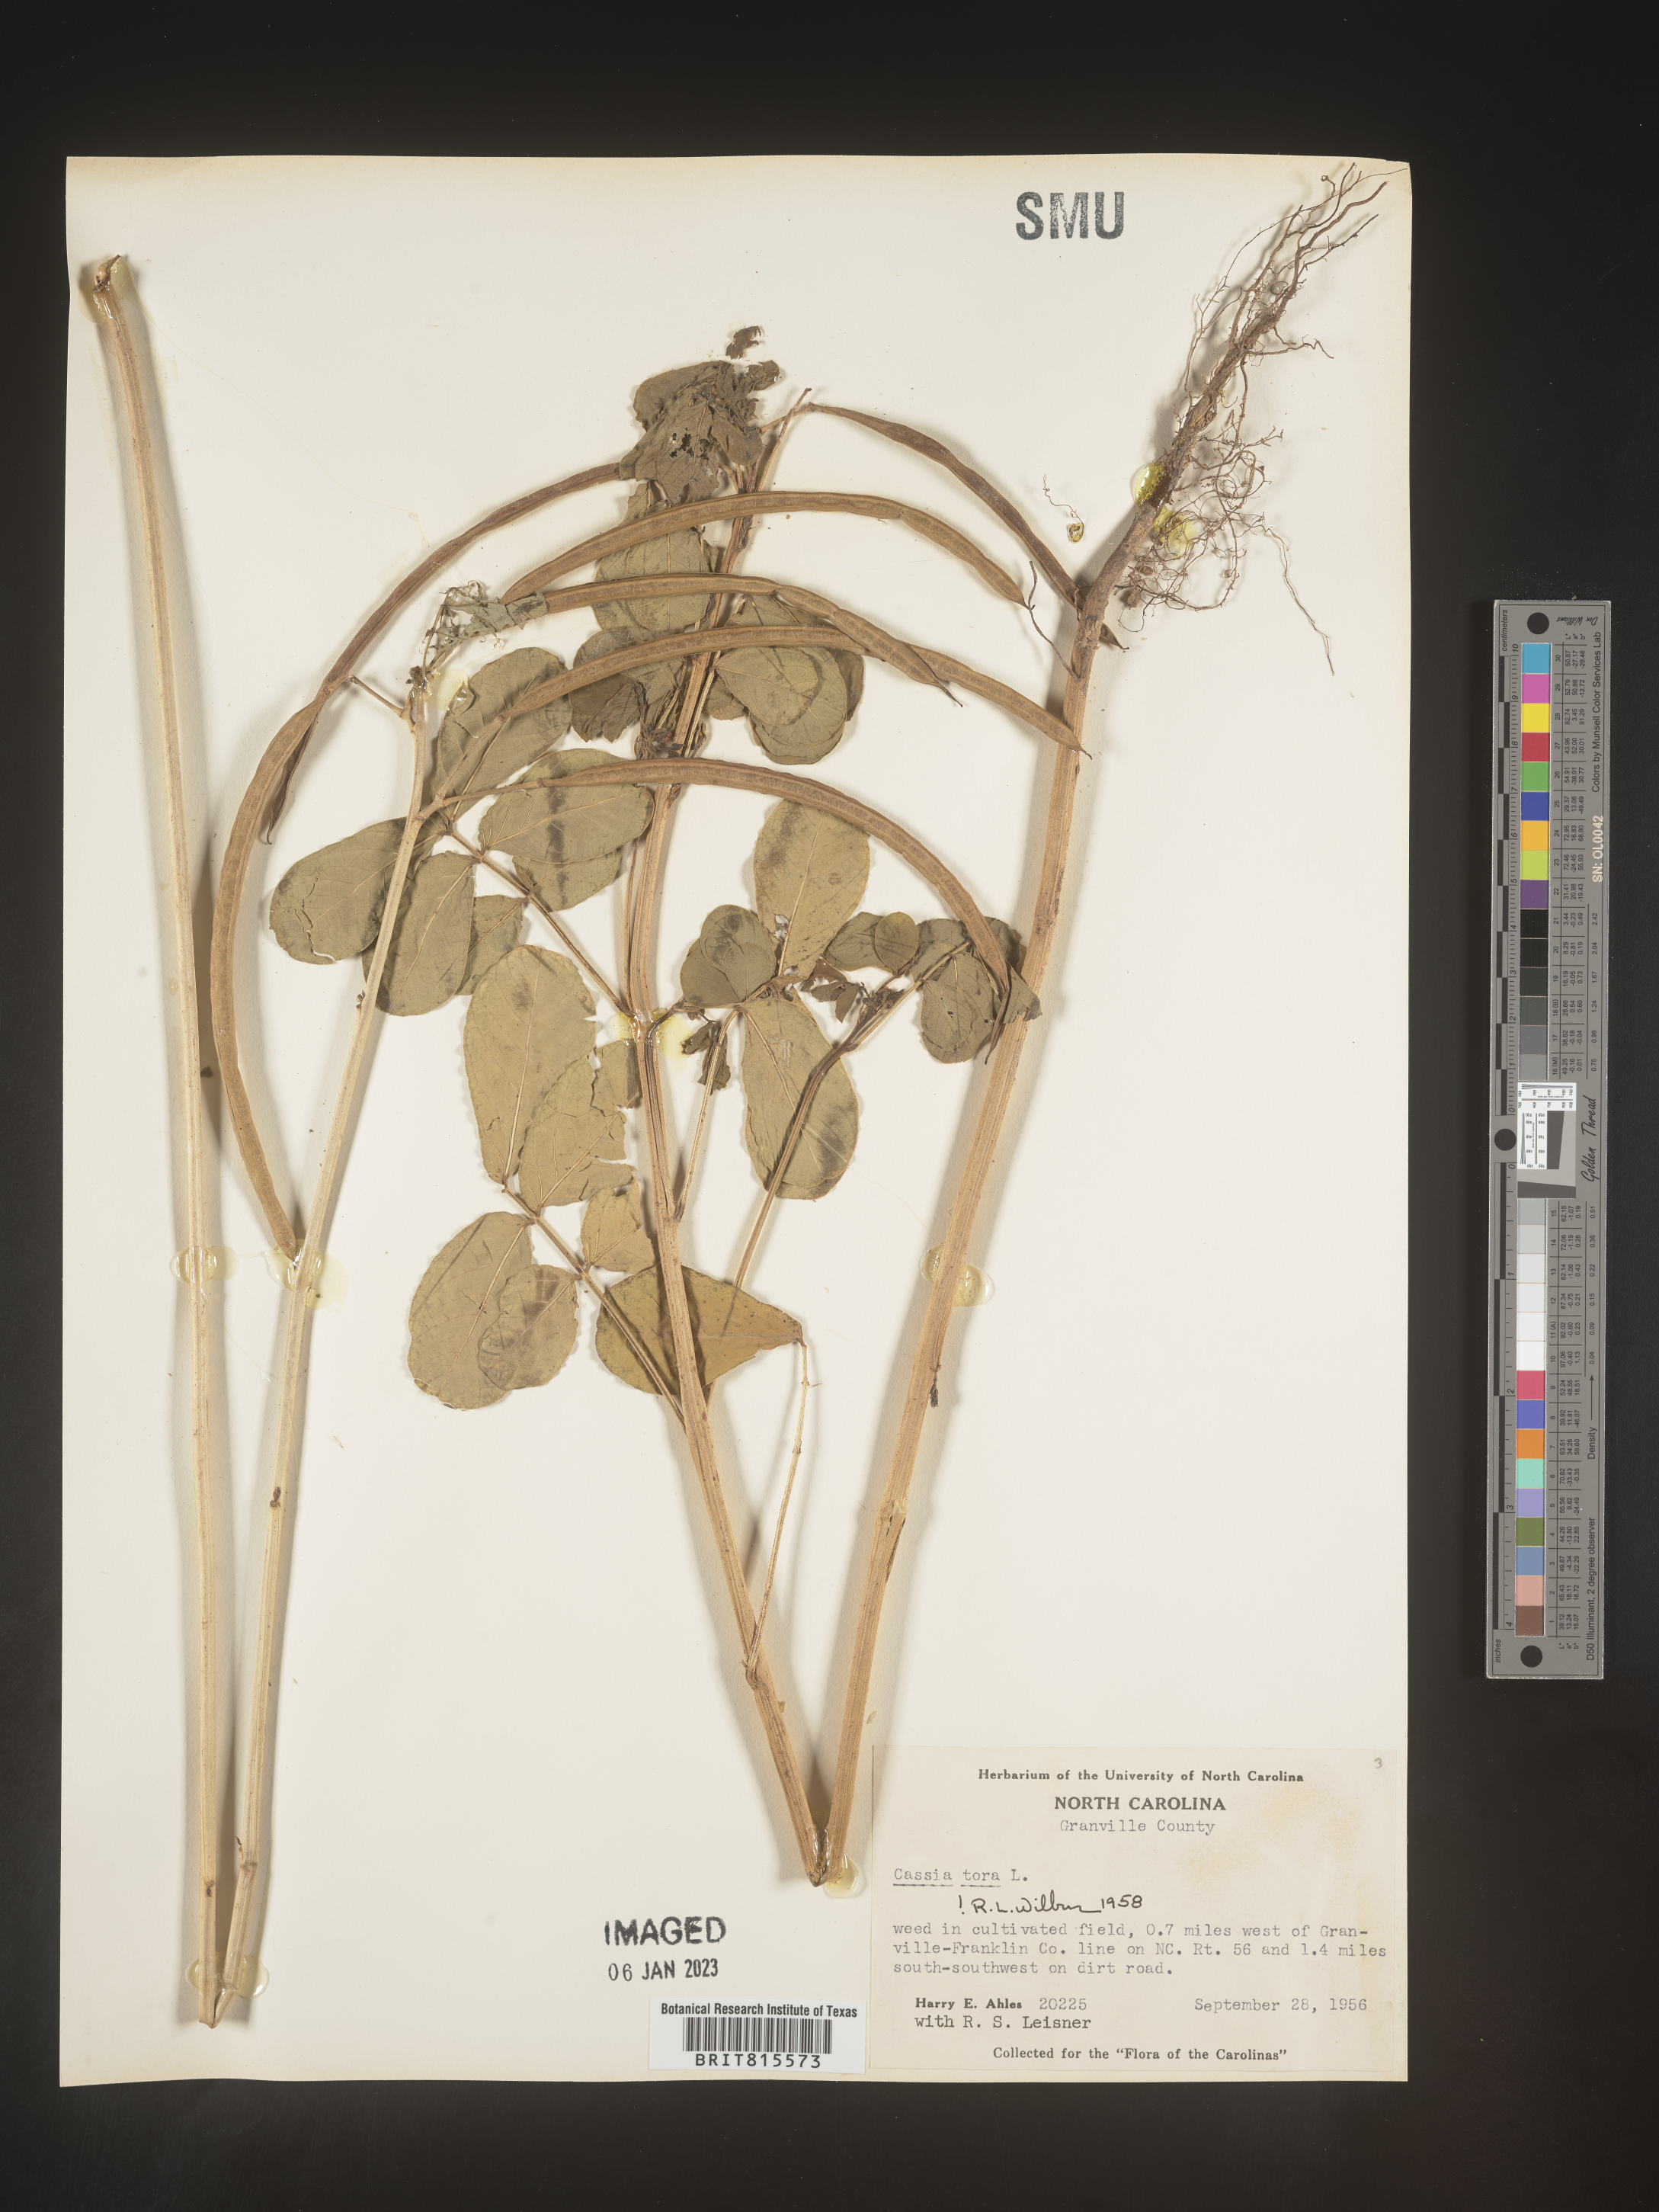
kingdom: Plantae
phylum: Tracheophyta
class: Magnoliopsida
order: Fabales
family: Fabaceae
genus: Senna
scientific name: Senna tora
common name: Sickle senna
